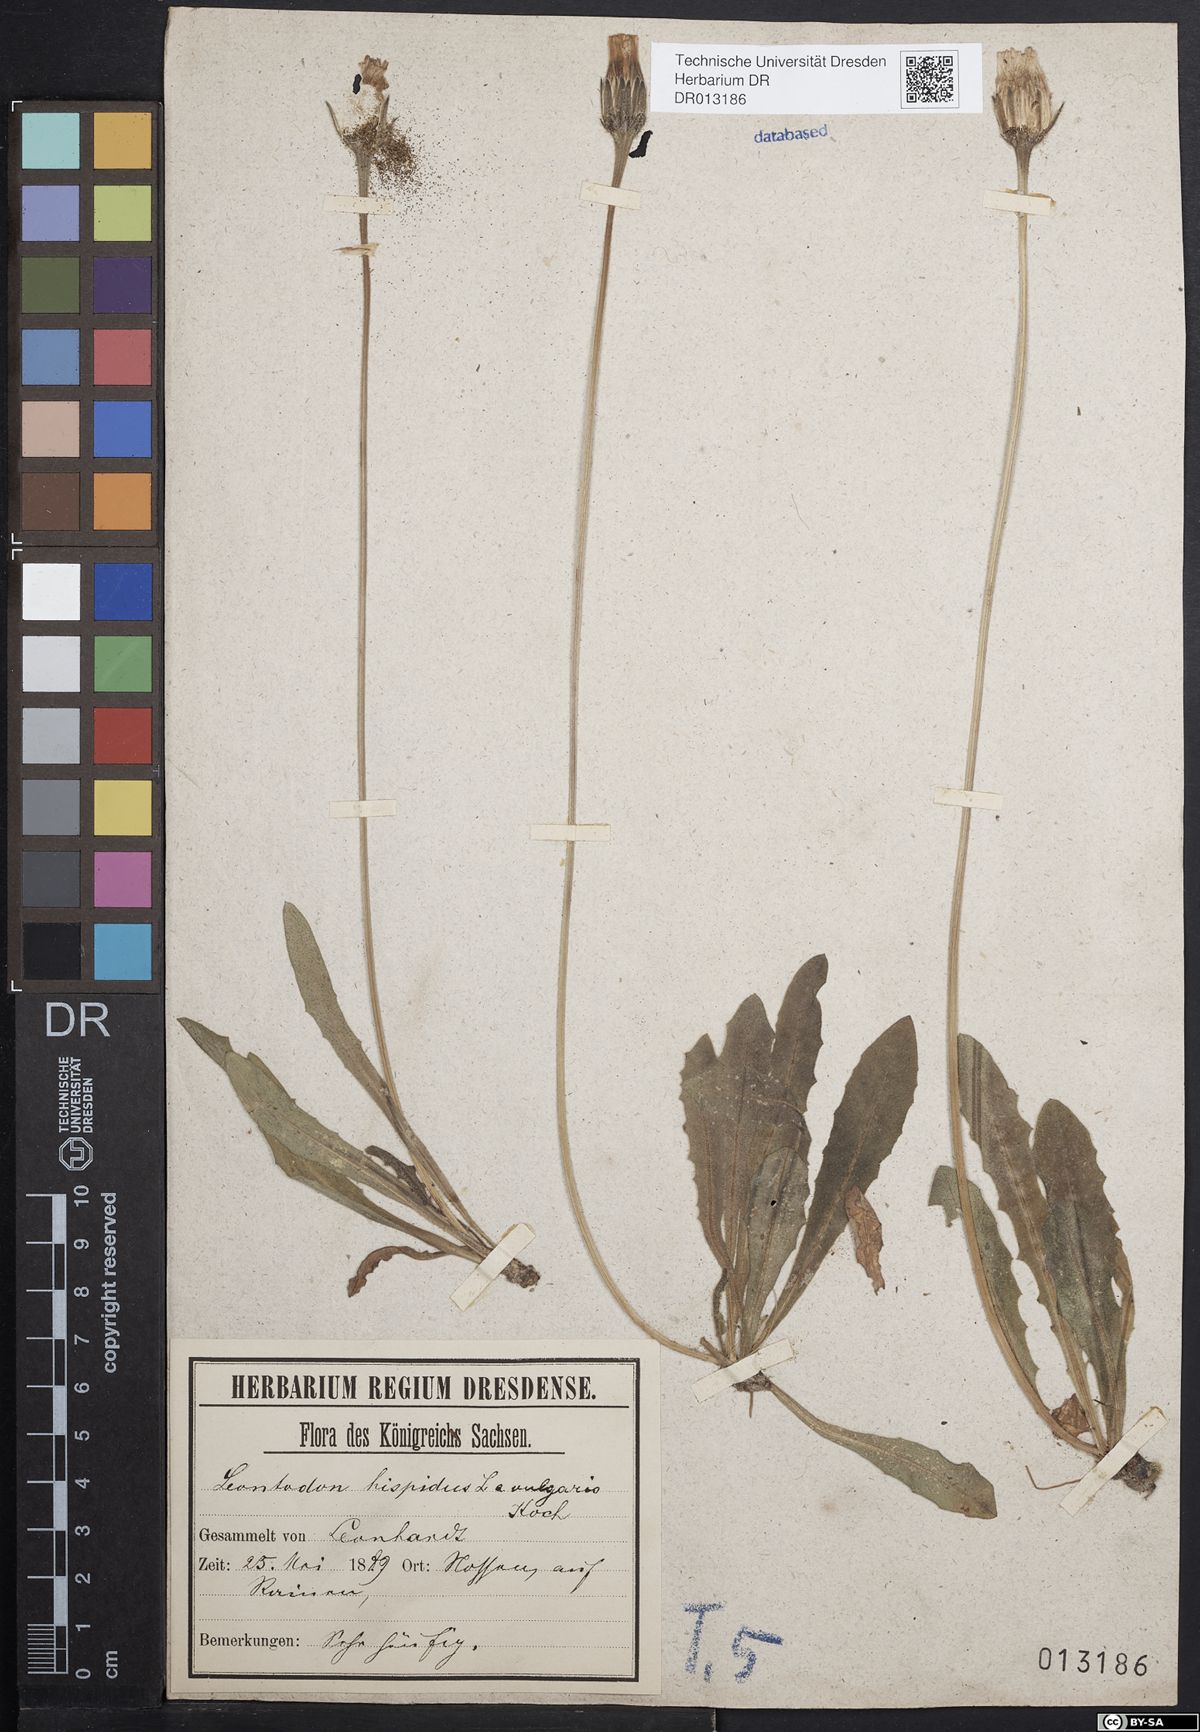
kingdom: Plantae
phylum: Tracheophyta
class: Magnoliopsida
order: Asterales
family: Asteraceae
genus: Leontodon
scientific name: Leontodon hispidus
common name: Rough hawkbit
